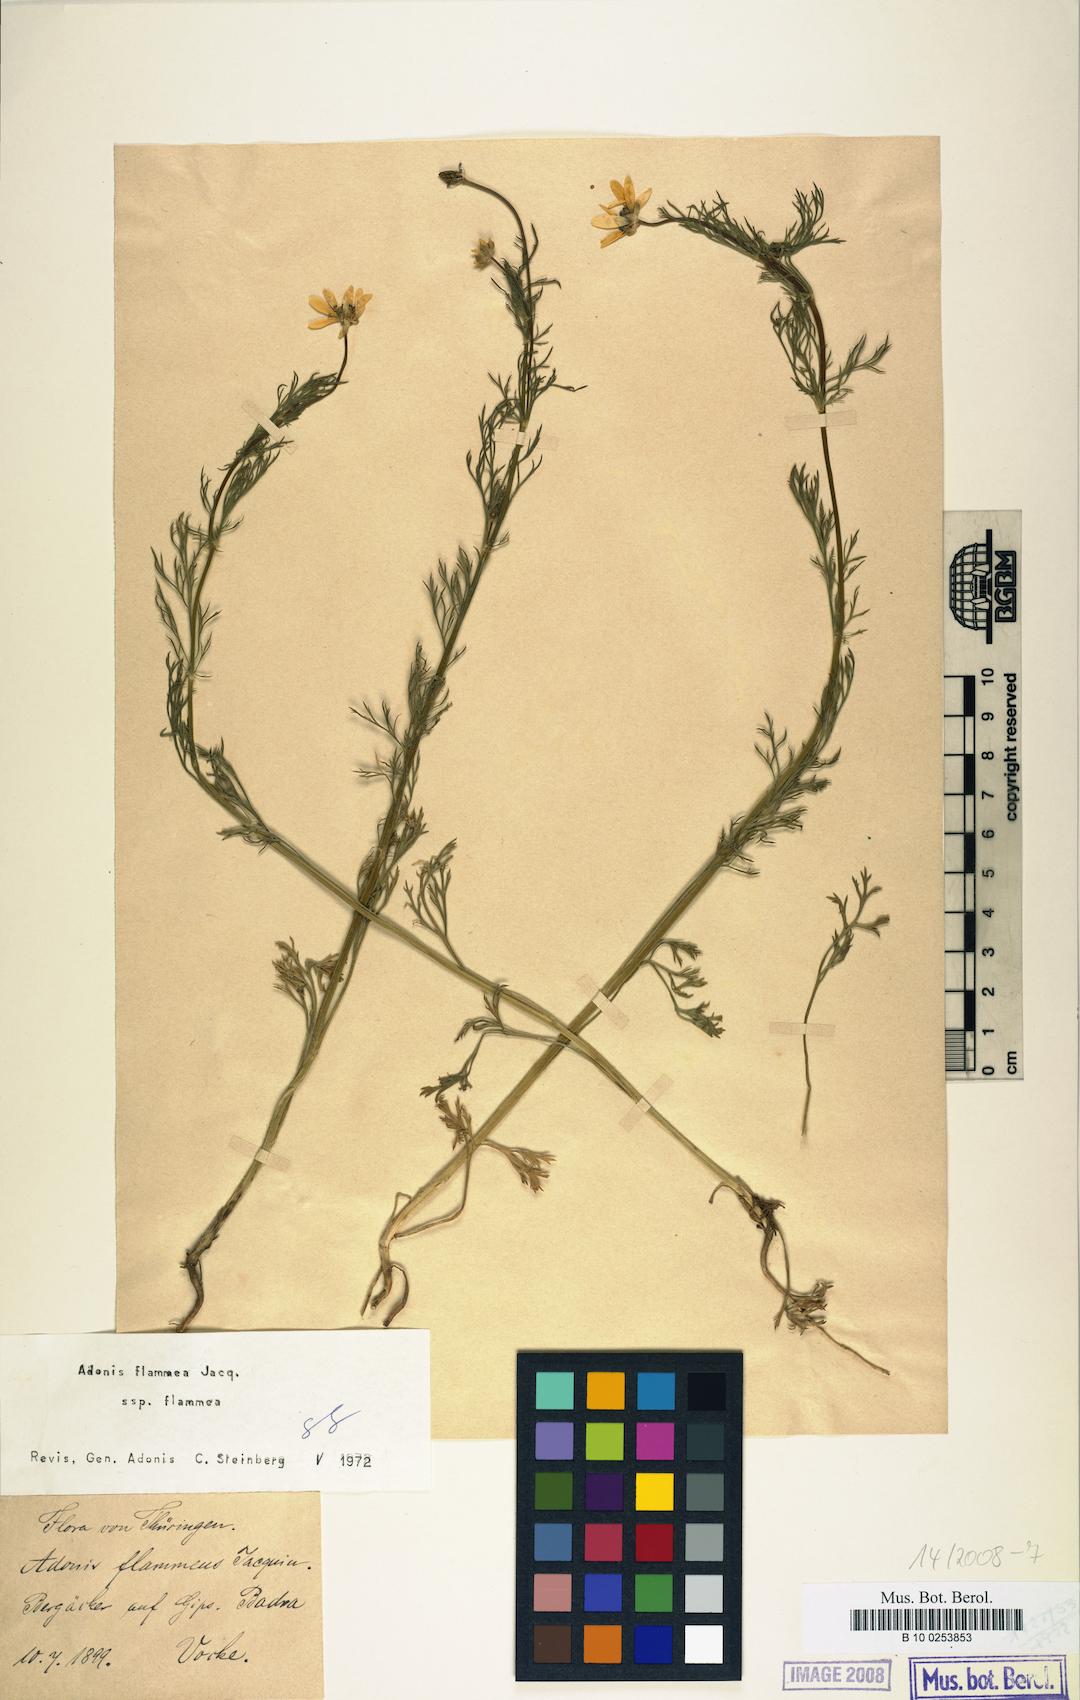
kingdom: Plantae
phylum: Tracheophyta
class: Magnoliopsida
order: Ranunculales
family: Ranunculaceae
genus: Adonis
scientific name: Adonis flammea
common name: Large pheasant's-eye
